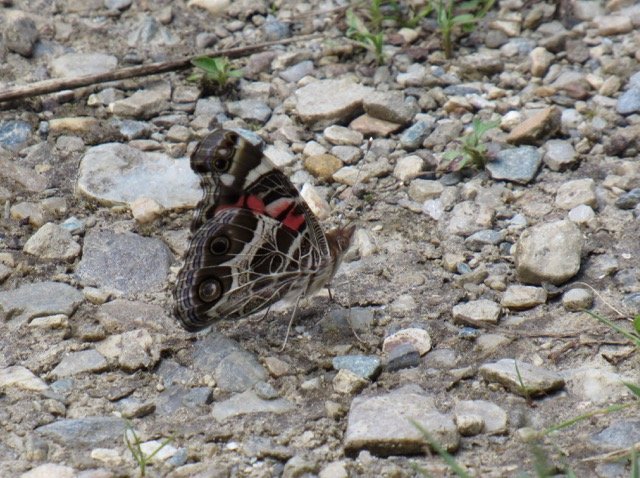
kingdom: Animalia
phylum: Arthropoda
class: Insecta
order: Lepidoptera
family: Nymphalidae
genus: Vanessa
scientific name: Vanessa virginiensis
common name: American Lady
